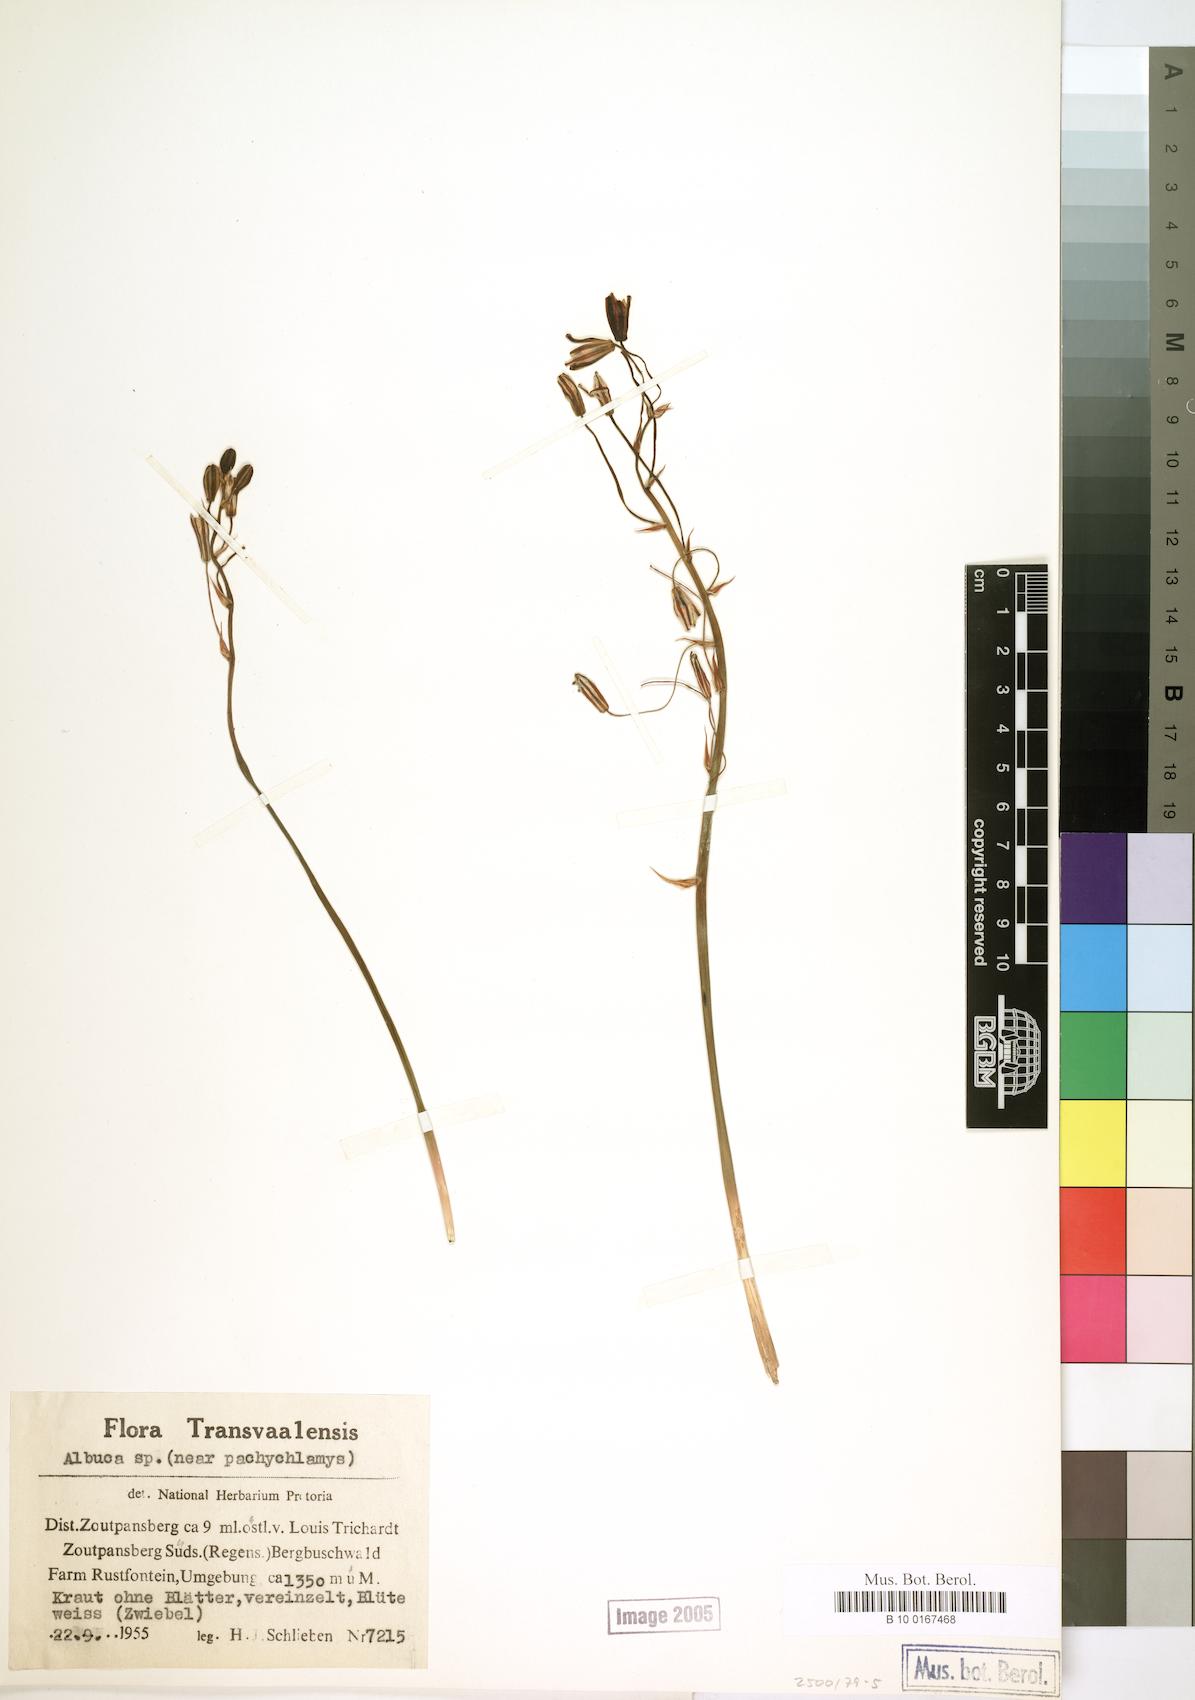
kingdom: Plantae
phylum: Tracheophyta
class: Liliopsida
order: Asparagales
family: Asparagaceae
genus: Albuca
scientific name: Albuca
